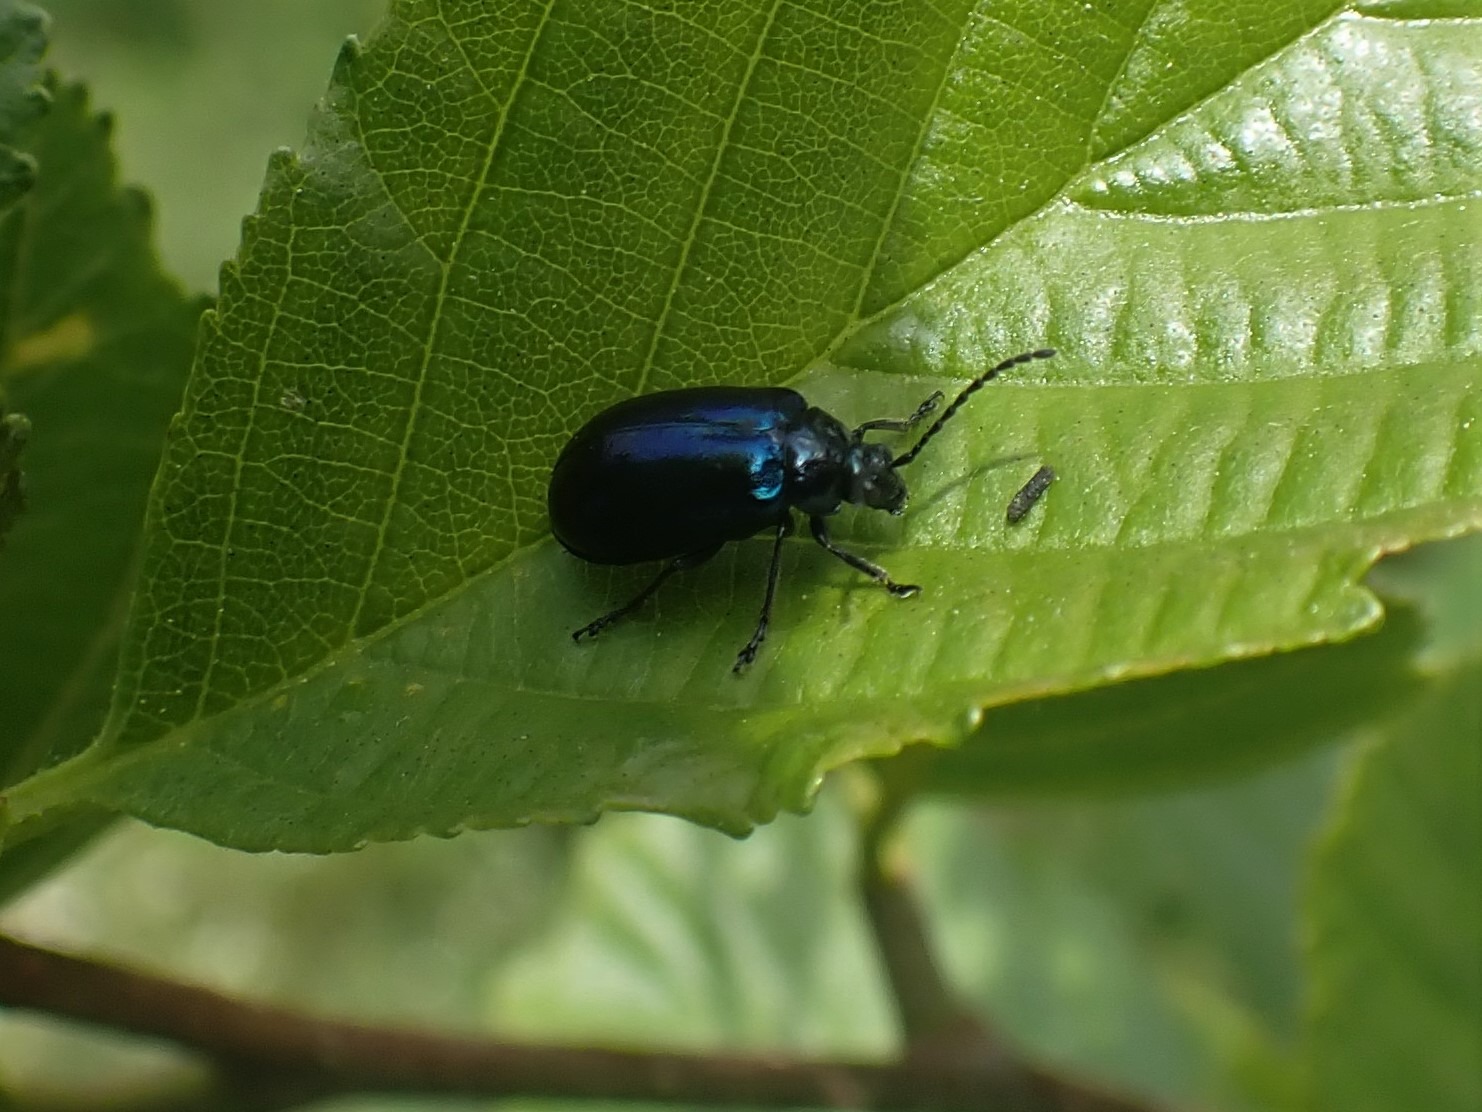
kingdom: Animalia
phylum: Arthropoda
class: Insecta
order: Coleoptera
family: Chrysomelidae
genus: Agelastica
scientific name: Agelastica alni
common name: Ellebladbille
